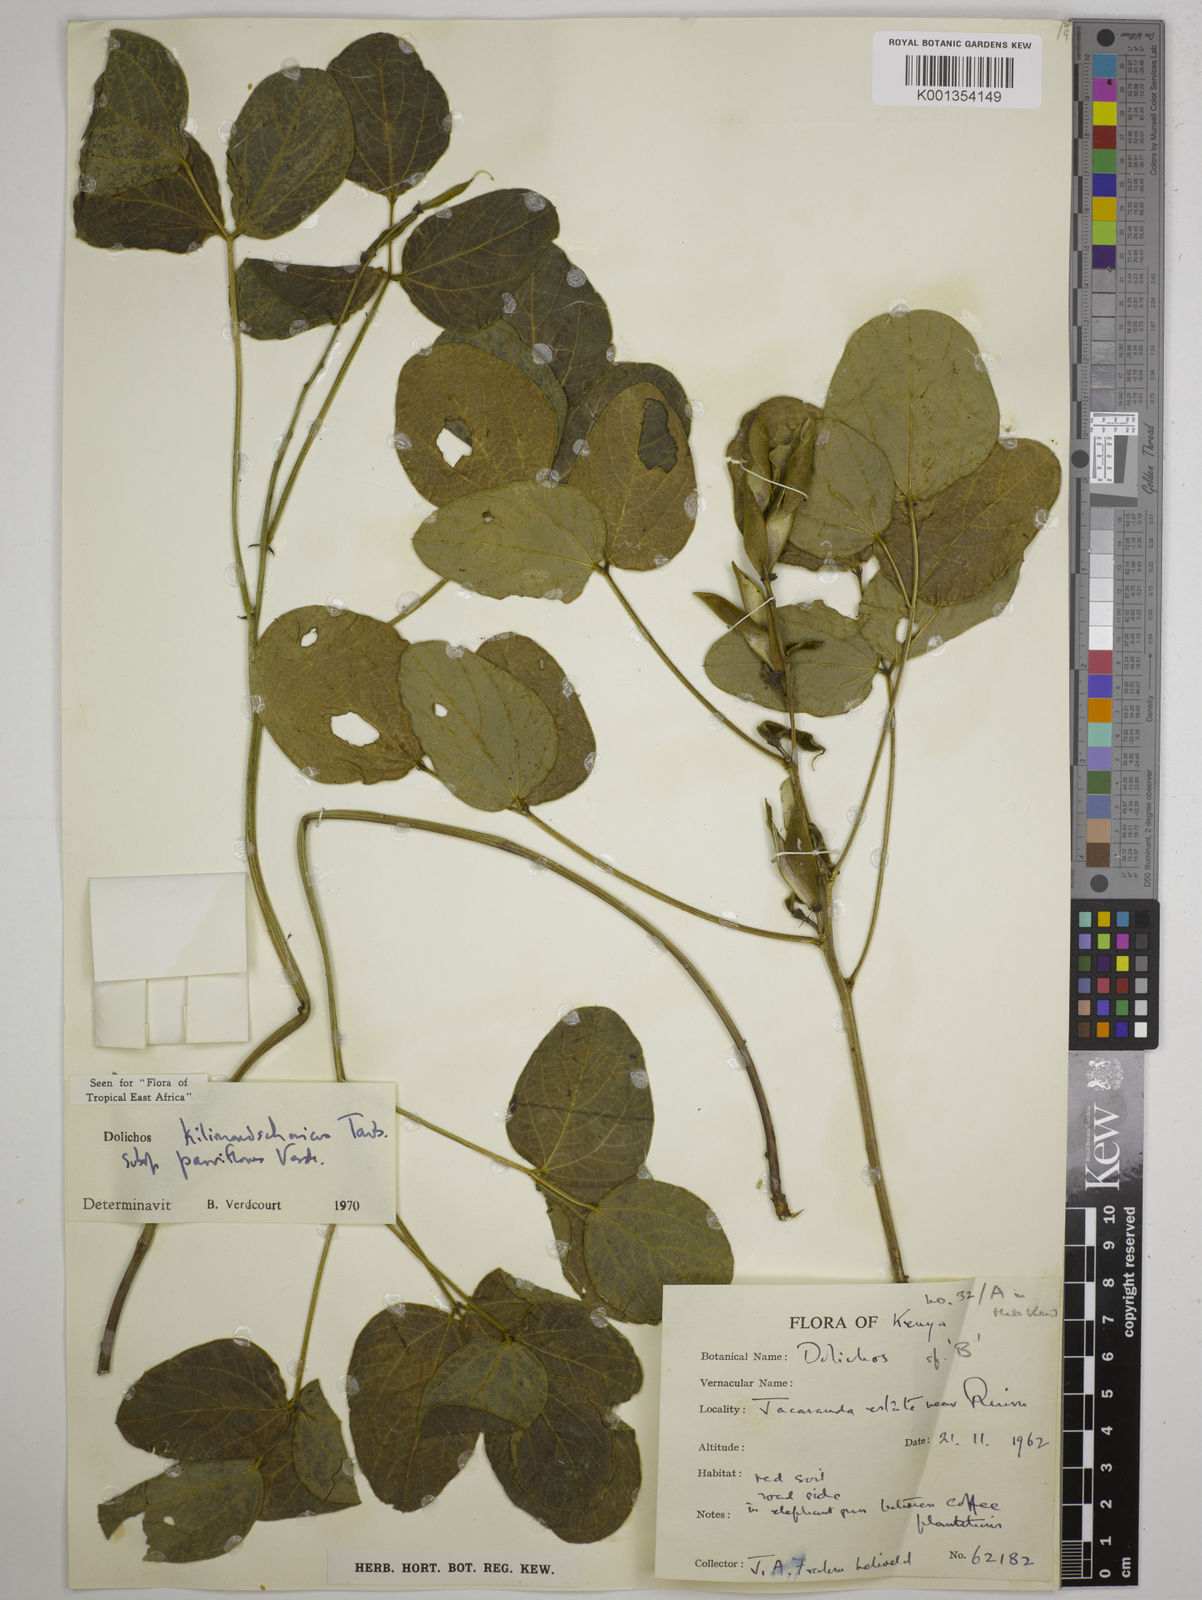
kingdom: Plantae
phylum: Tracheophyta
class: Magnoliopsida
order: Fabales
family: Fabaceae
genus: Dolichos
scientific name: Dolichos
